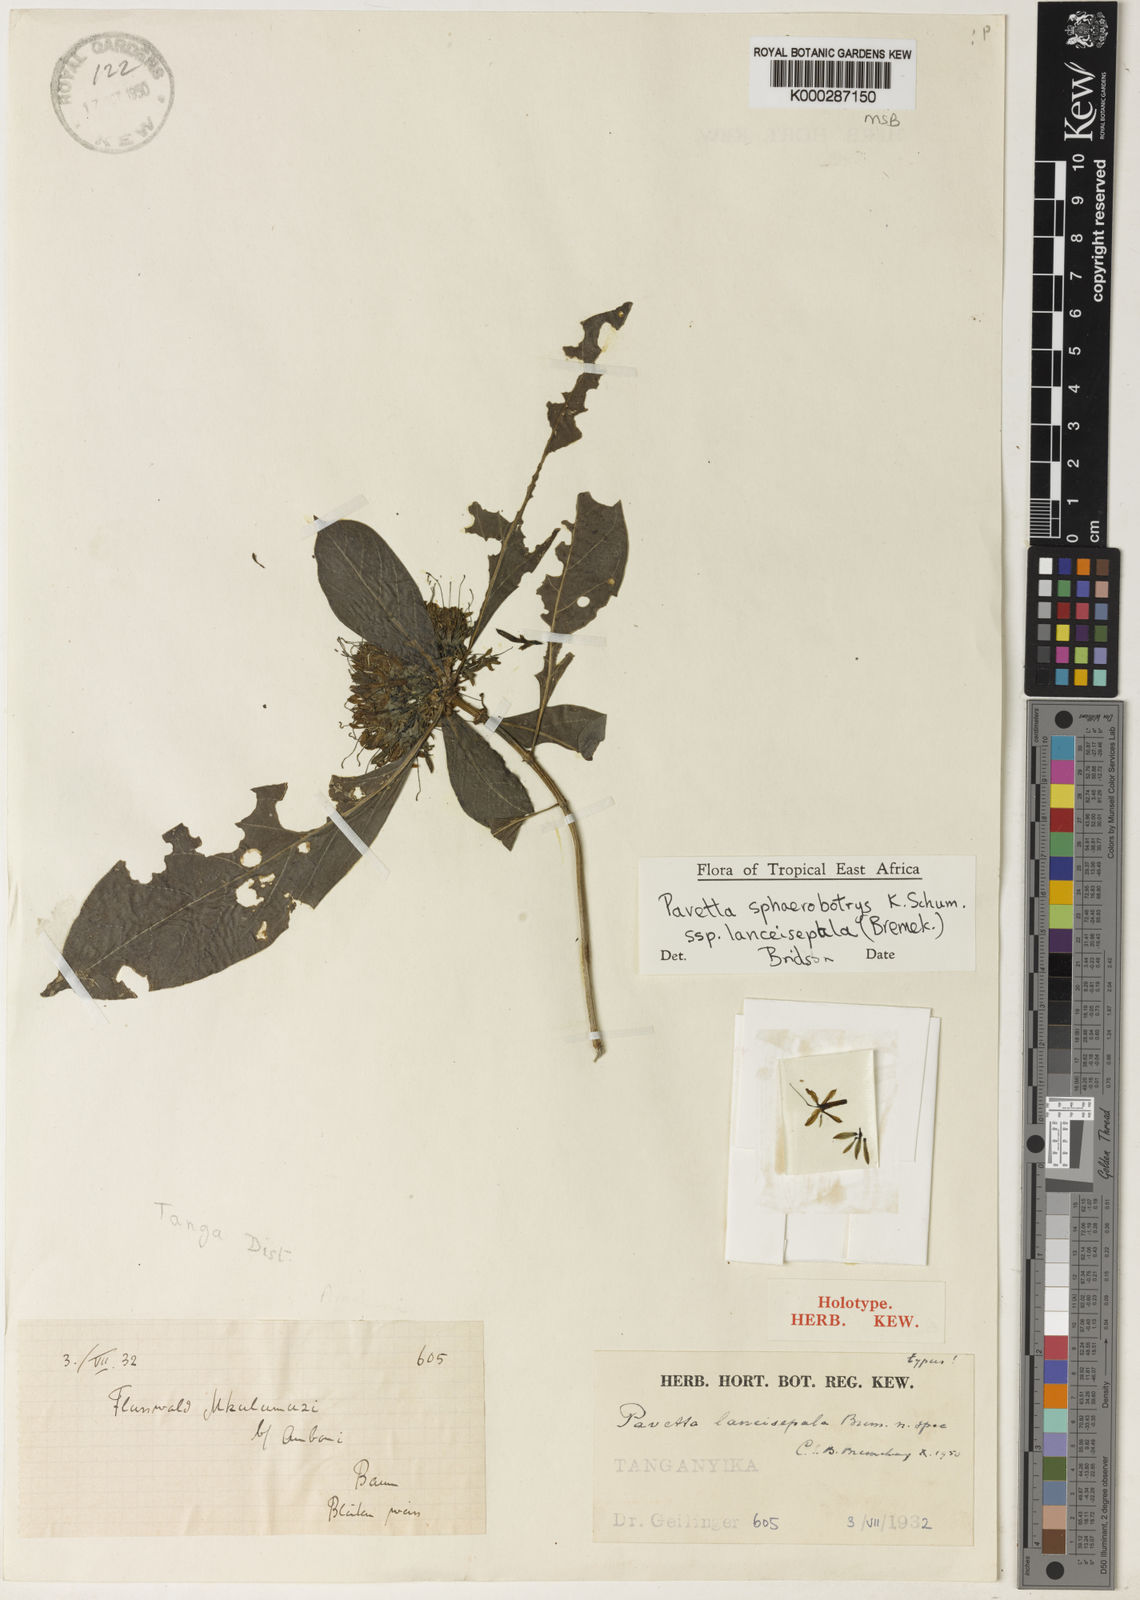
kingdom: Plantae
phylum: Tracheophyta
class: Magnoliopsida
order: Gentianales
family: Rubiaceae
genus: Pavetta
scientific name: Pavetta sphaerobotrys
